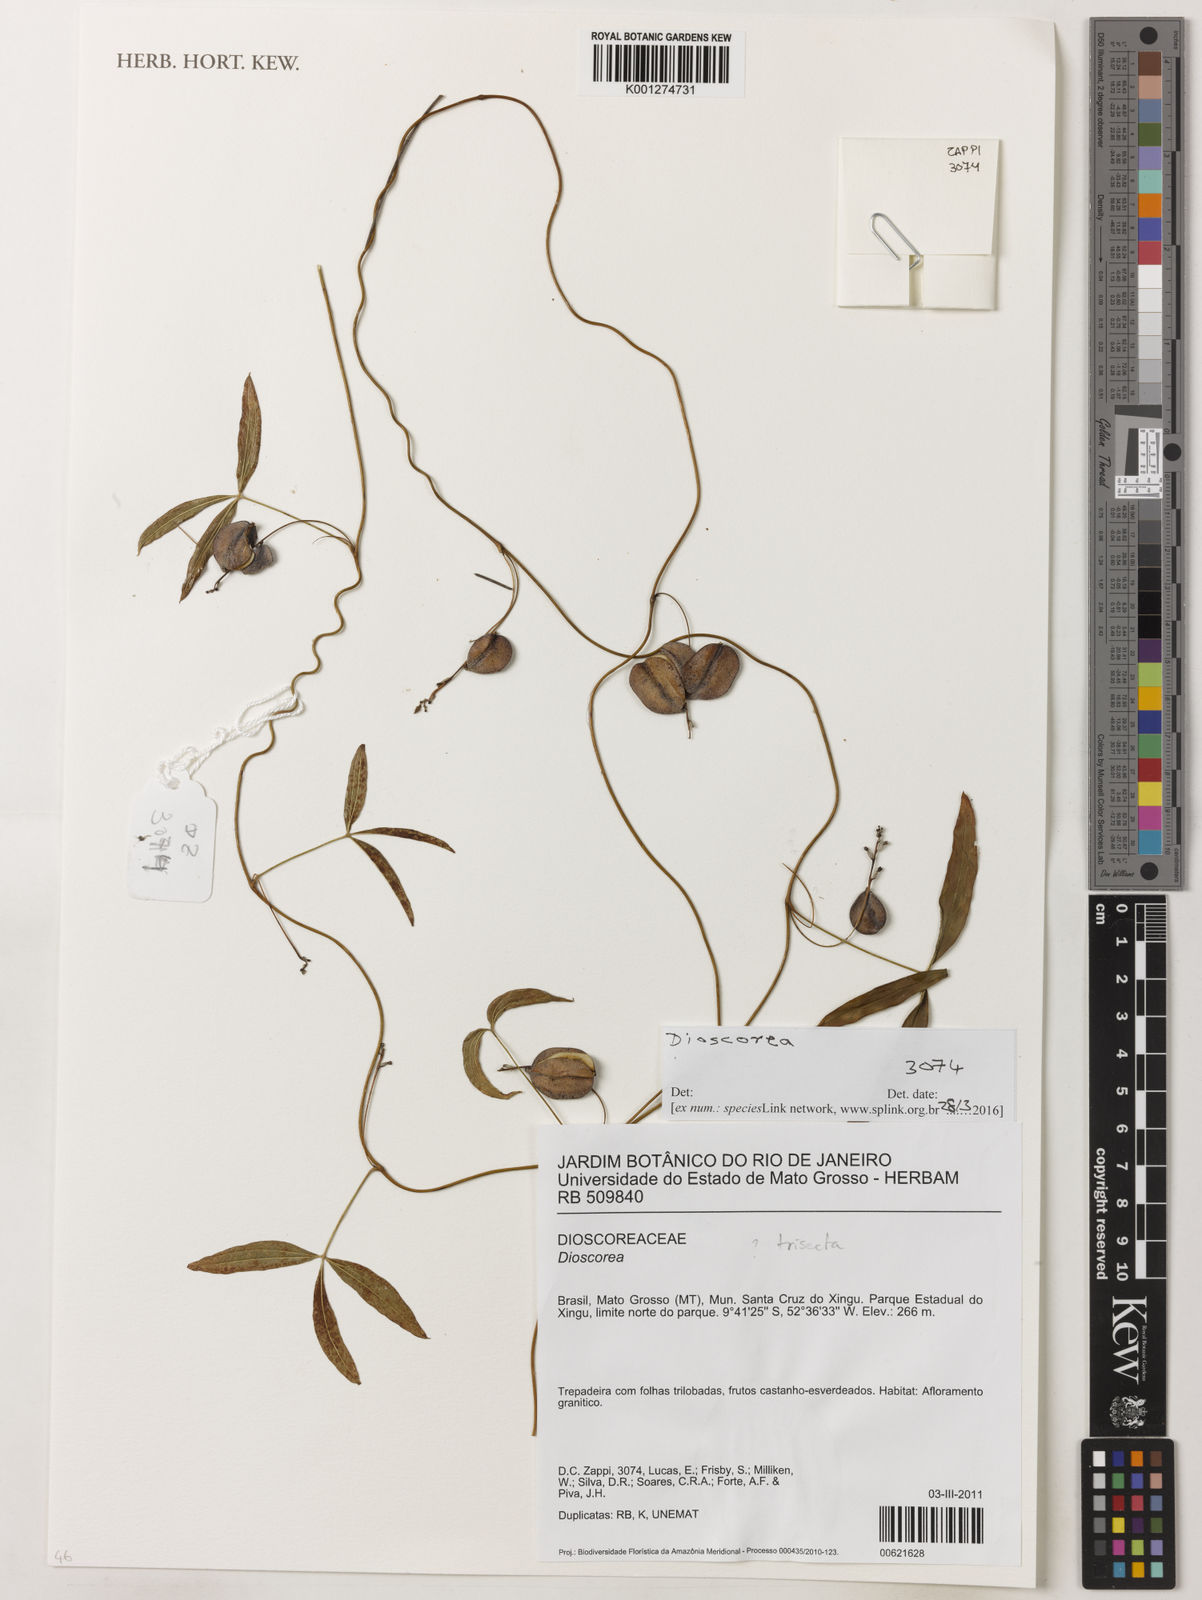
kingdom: Plantae
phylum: Tracheophyta
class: Liliopsida
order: Dioscoreales
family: Dioscoreaceae
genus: Dioscorea
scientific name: Dioscorea
